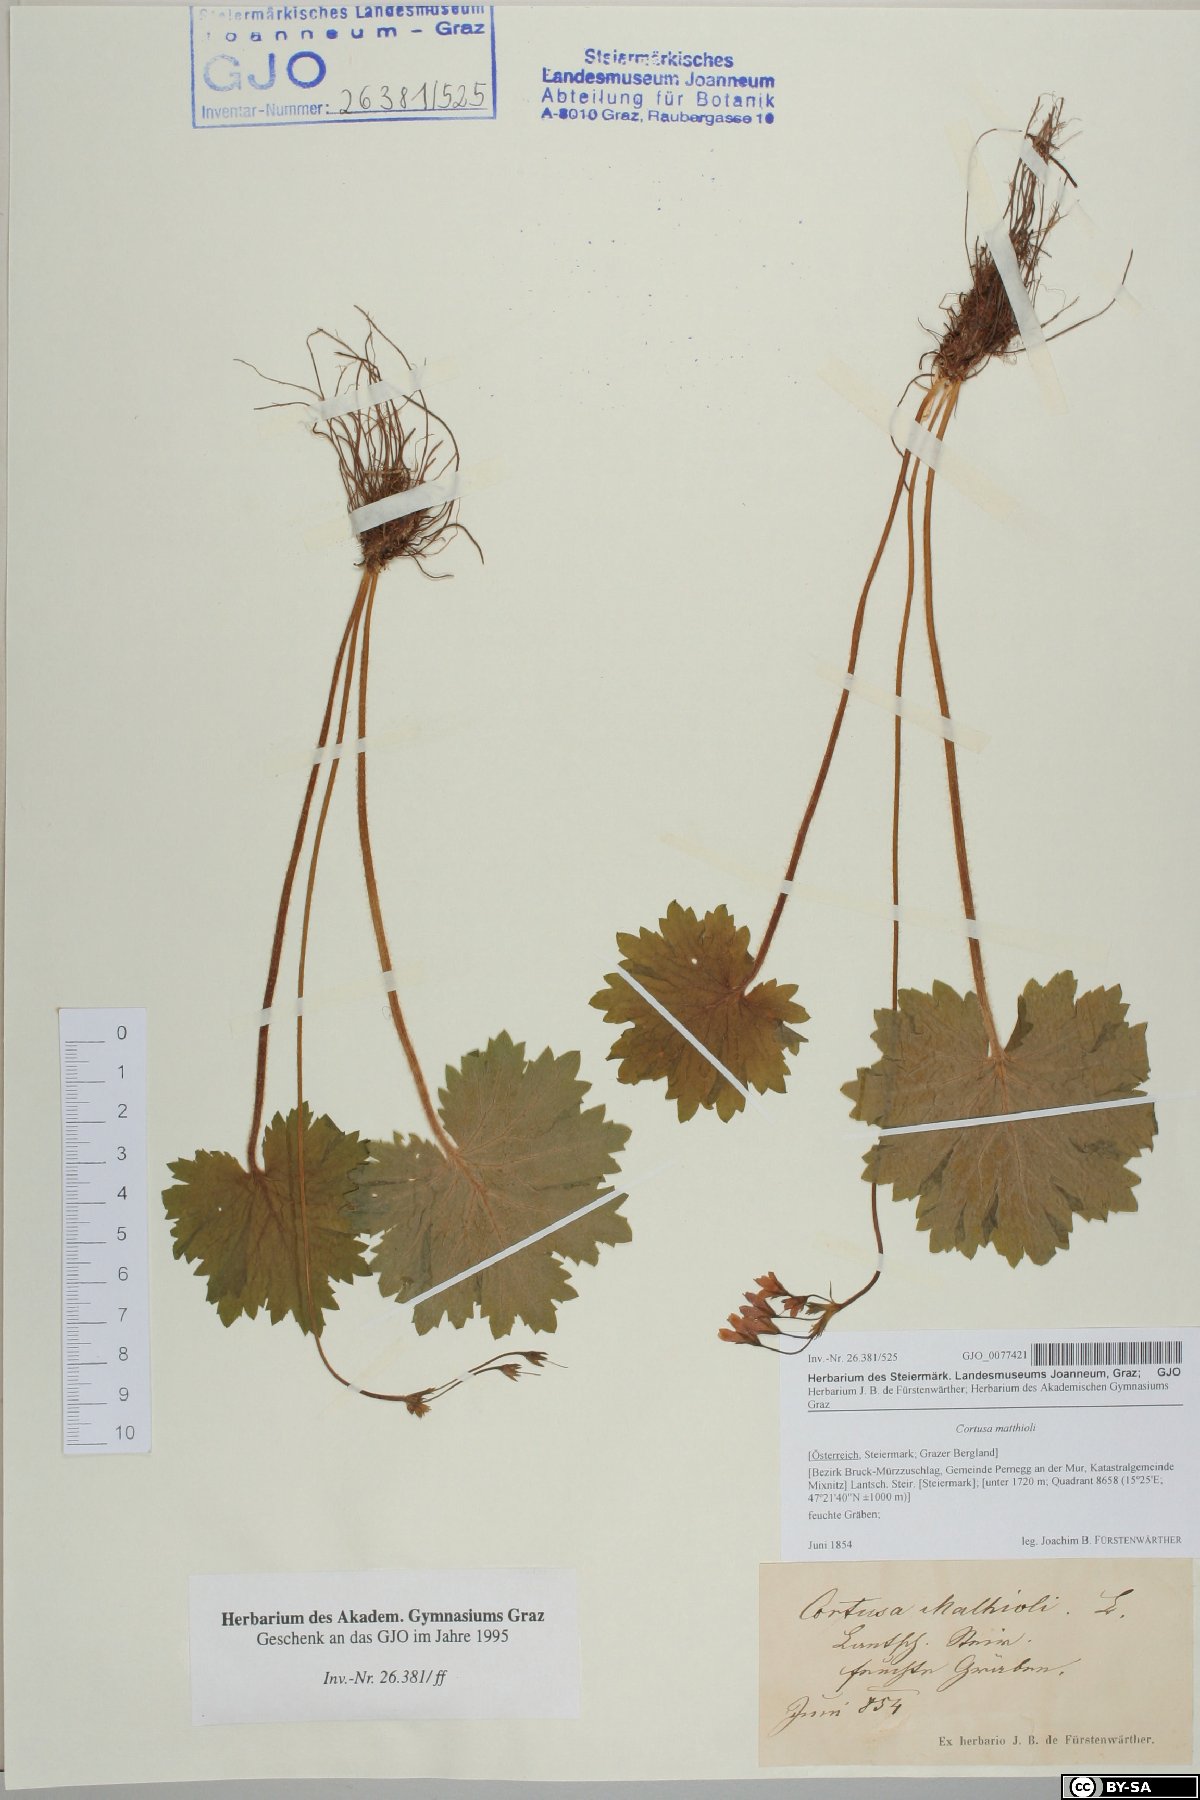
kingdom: Plantae
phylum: Tracheophyta
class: Magnoliopsida
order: Ericales
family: Primulaceae
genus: Primula
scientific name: Primula matthioli
